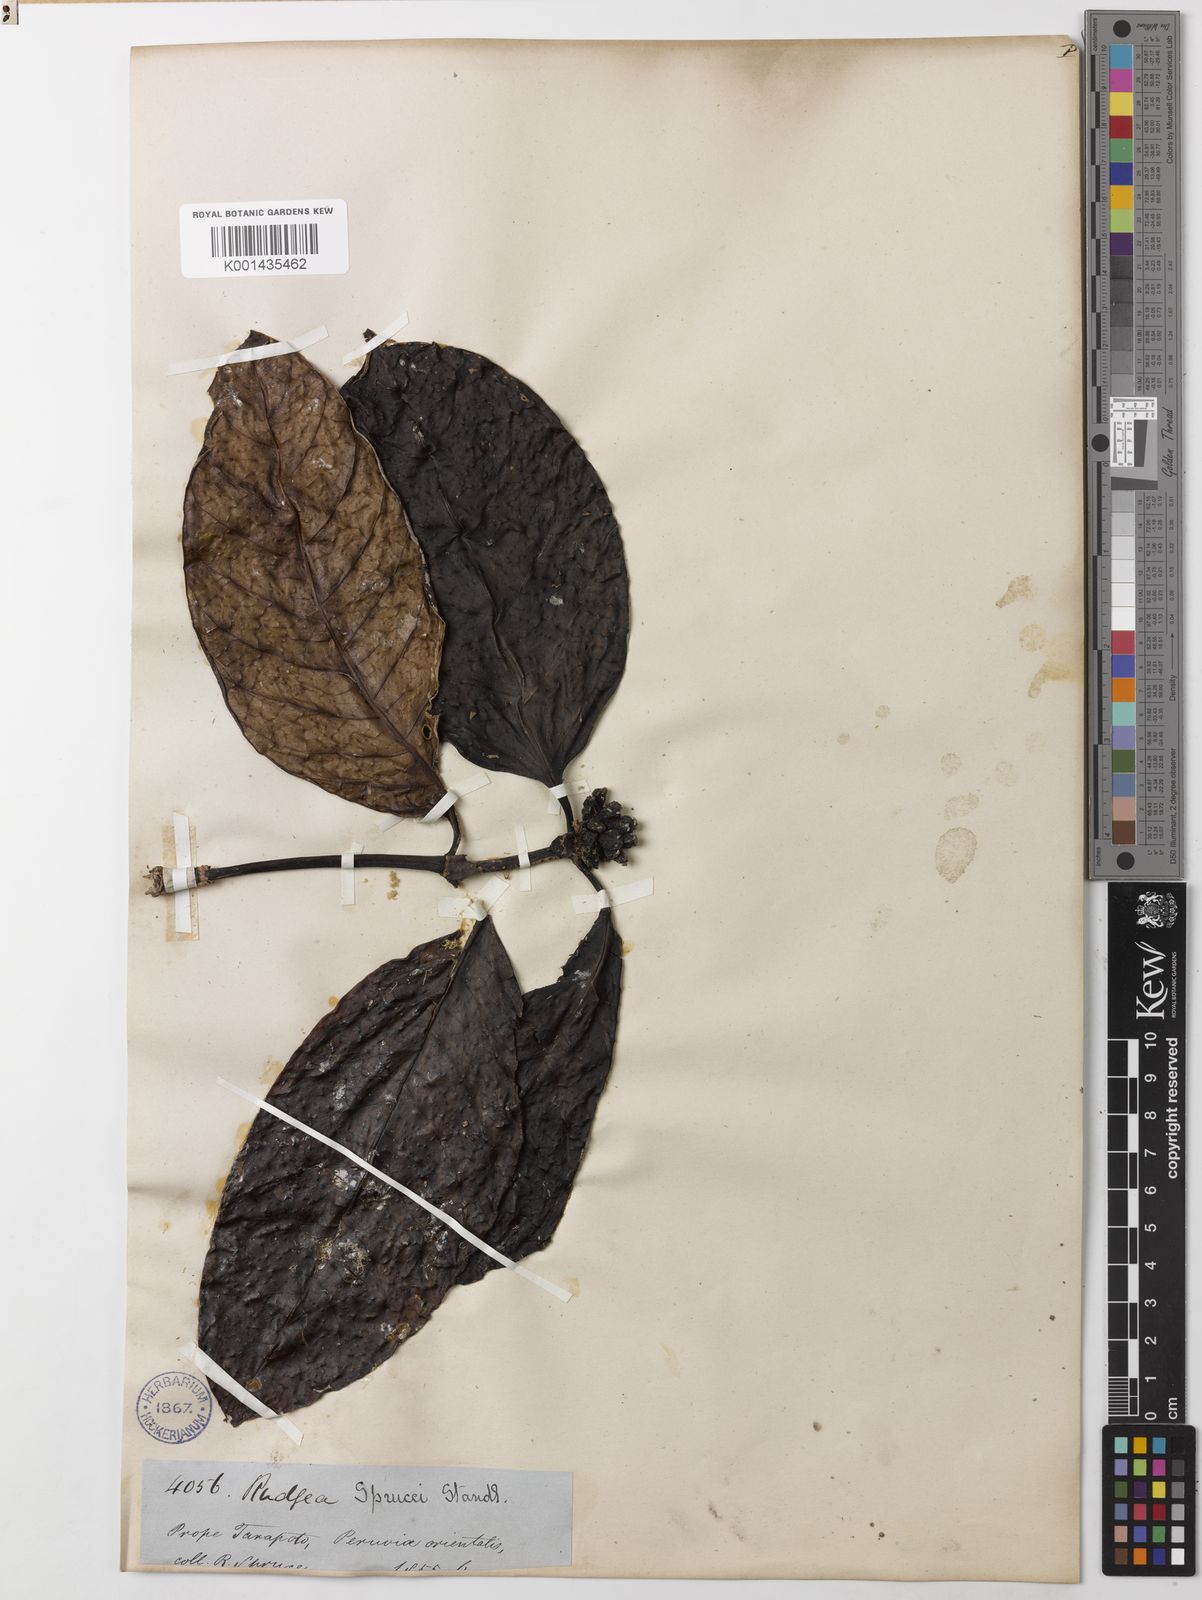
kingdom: Plantae
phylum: Tracheophyta
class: Magnoliopsida
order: Gentianales
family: Rubiaceae
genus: Rudgea
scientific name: Rudgea sprucei
